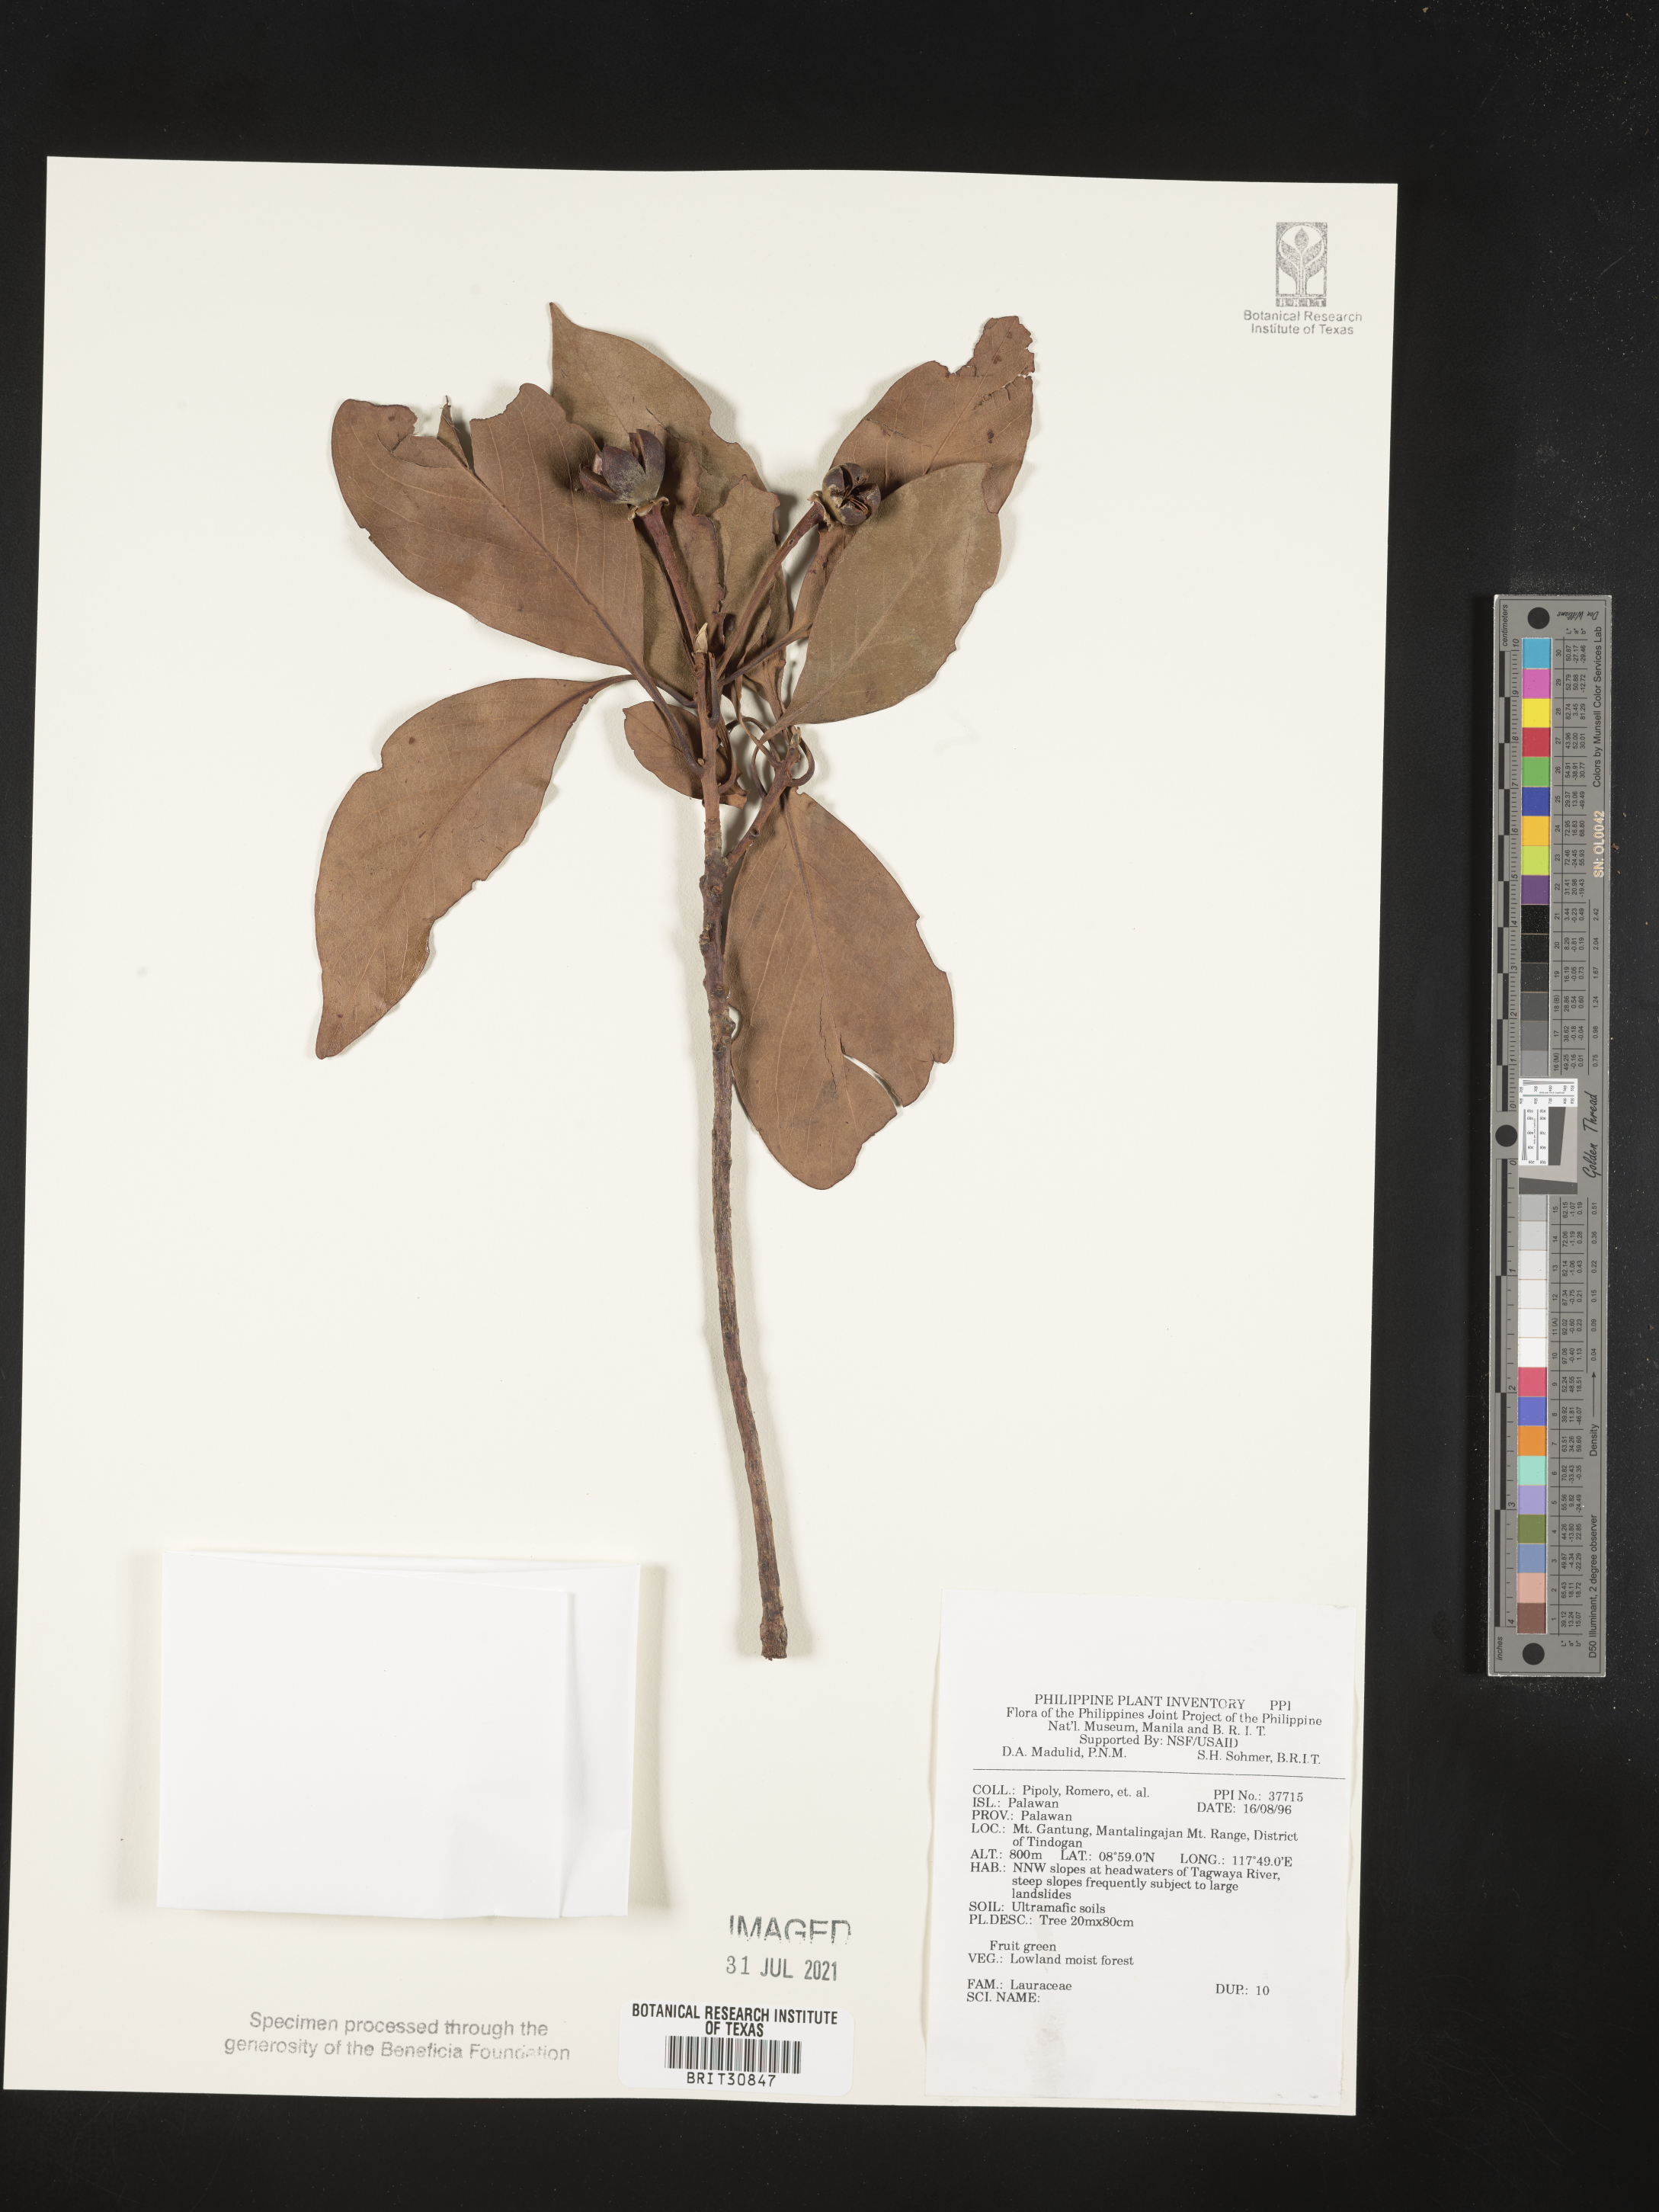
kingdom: Plantae
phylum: Tracheophyta
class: Magnoliopsida
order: Laurales
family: Lauraceae
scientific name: Lauraceae
